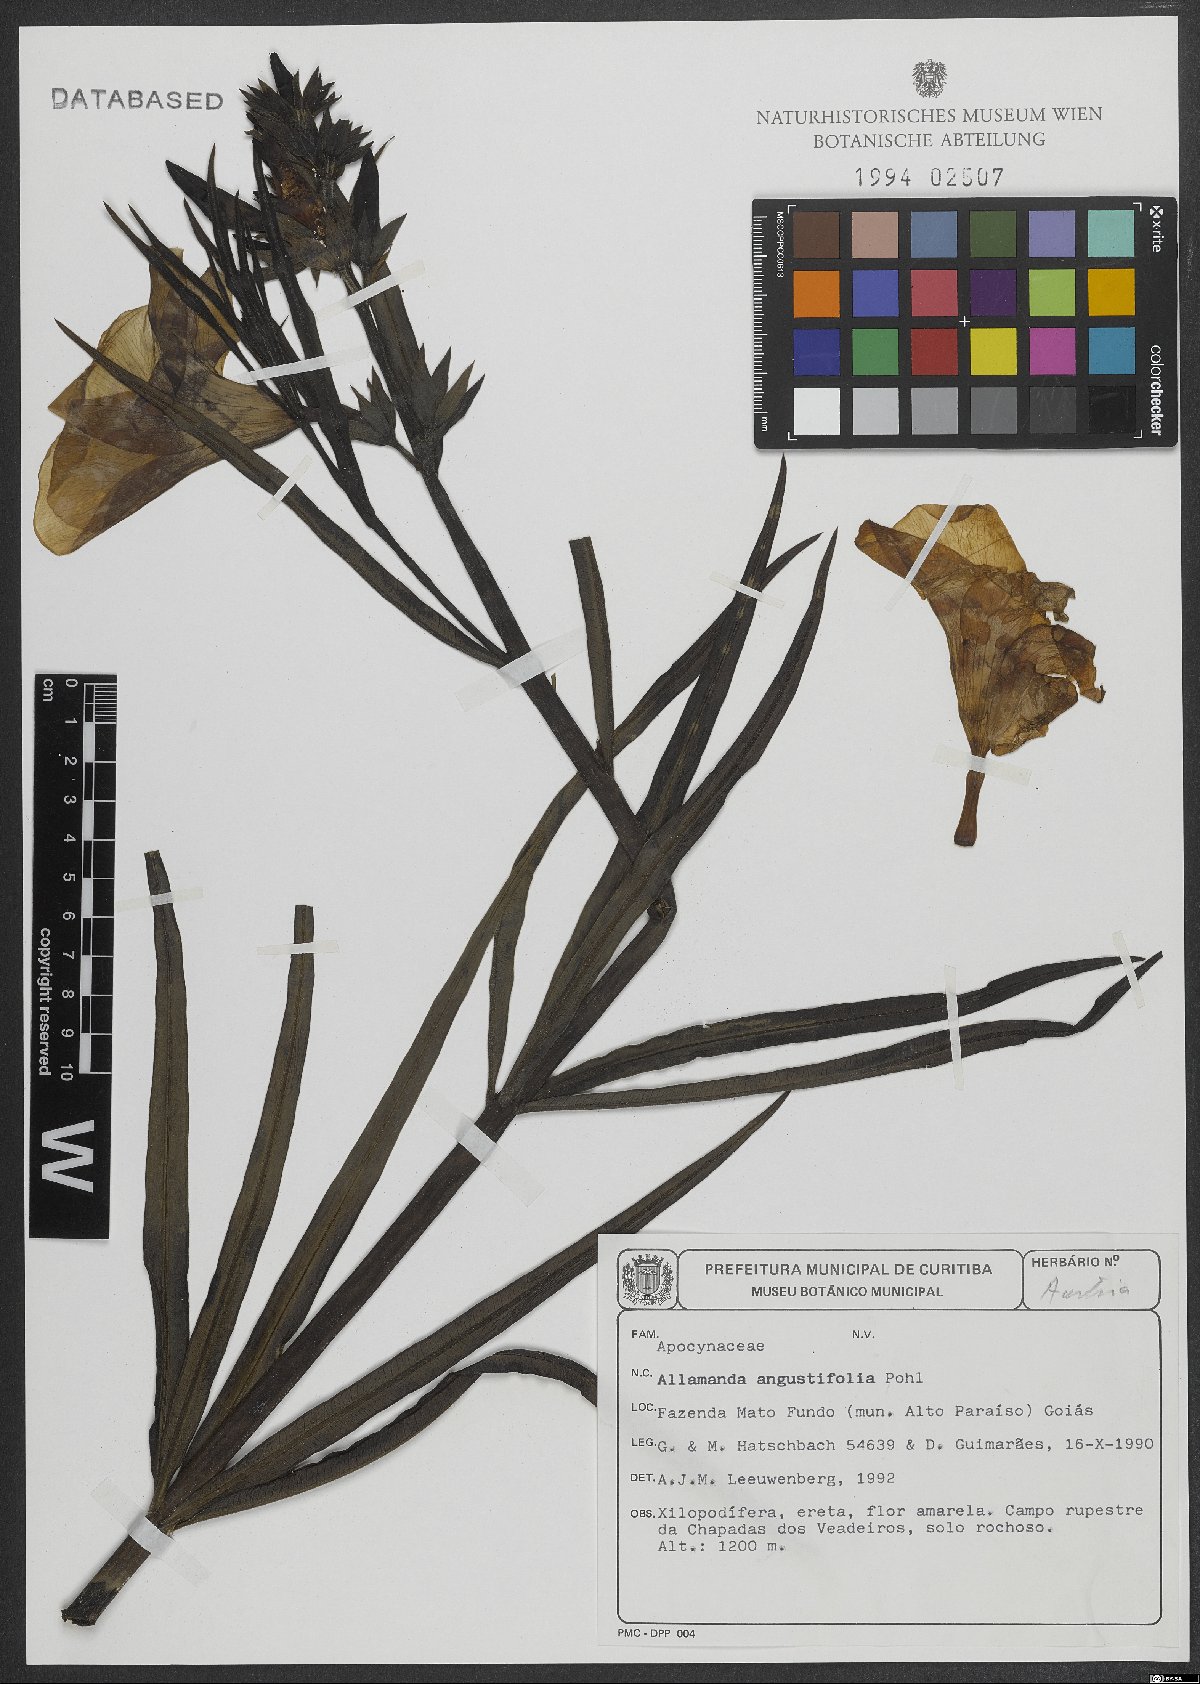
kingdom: Plantae
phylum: Tracheophyta
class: Magnoliopsida
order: Gentianales
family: Apocynaceae
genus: Allamanda
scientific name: Allamanda angustifolia
